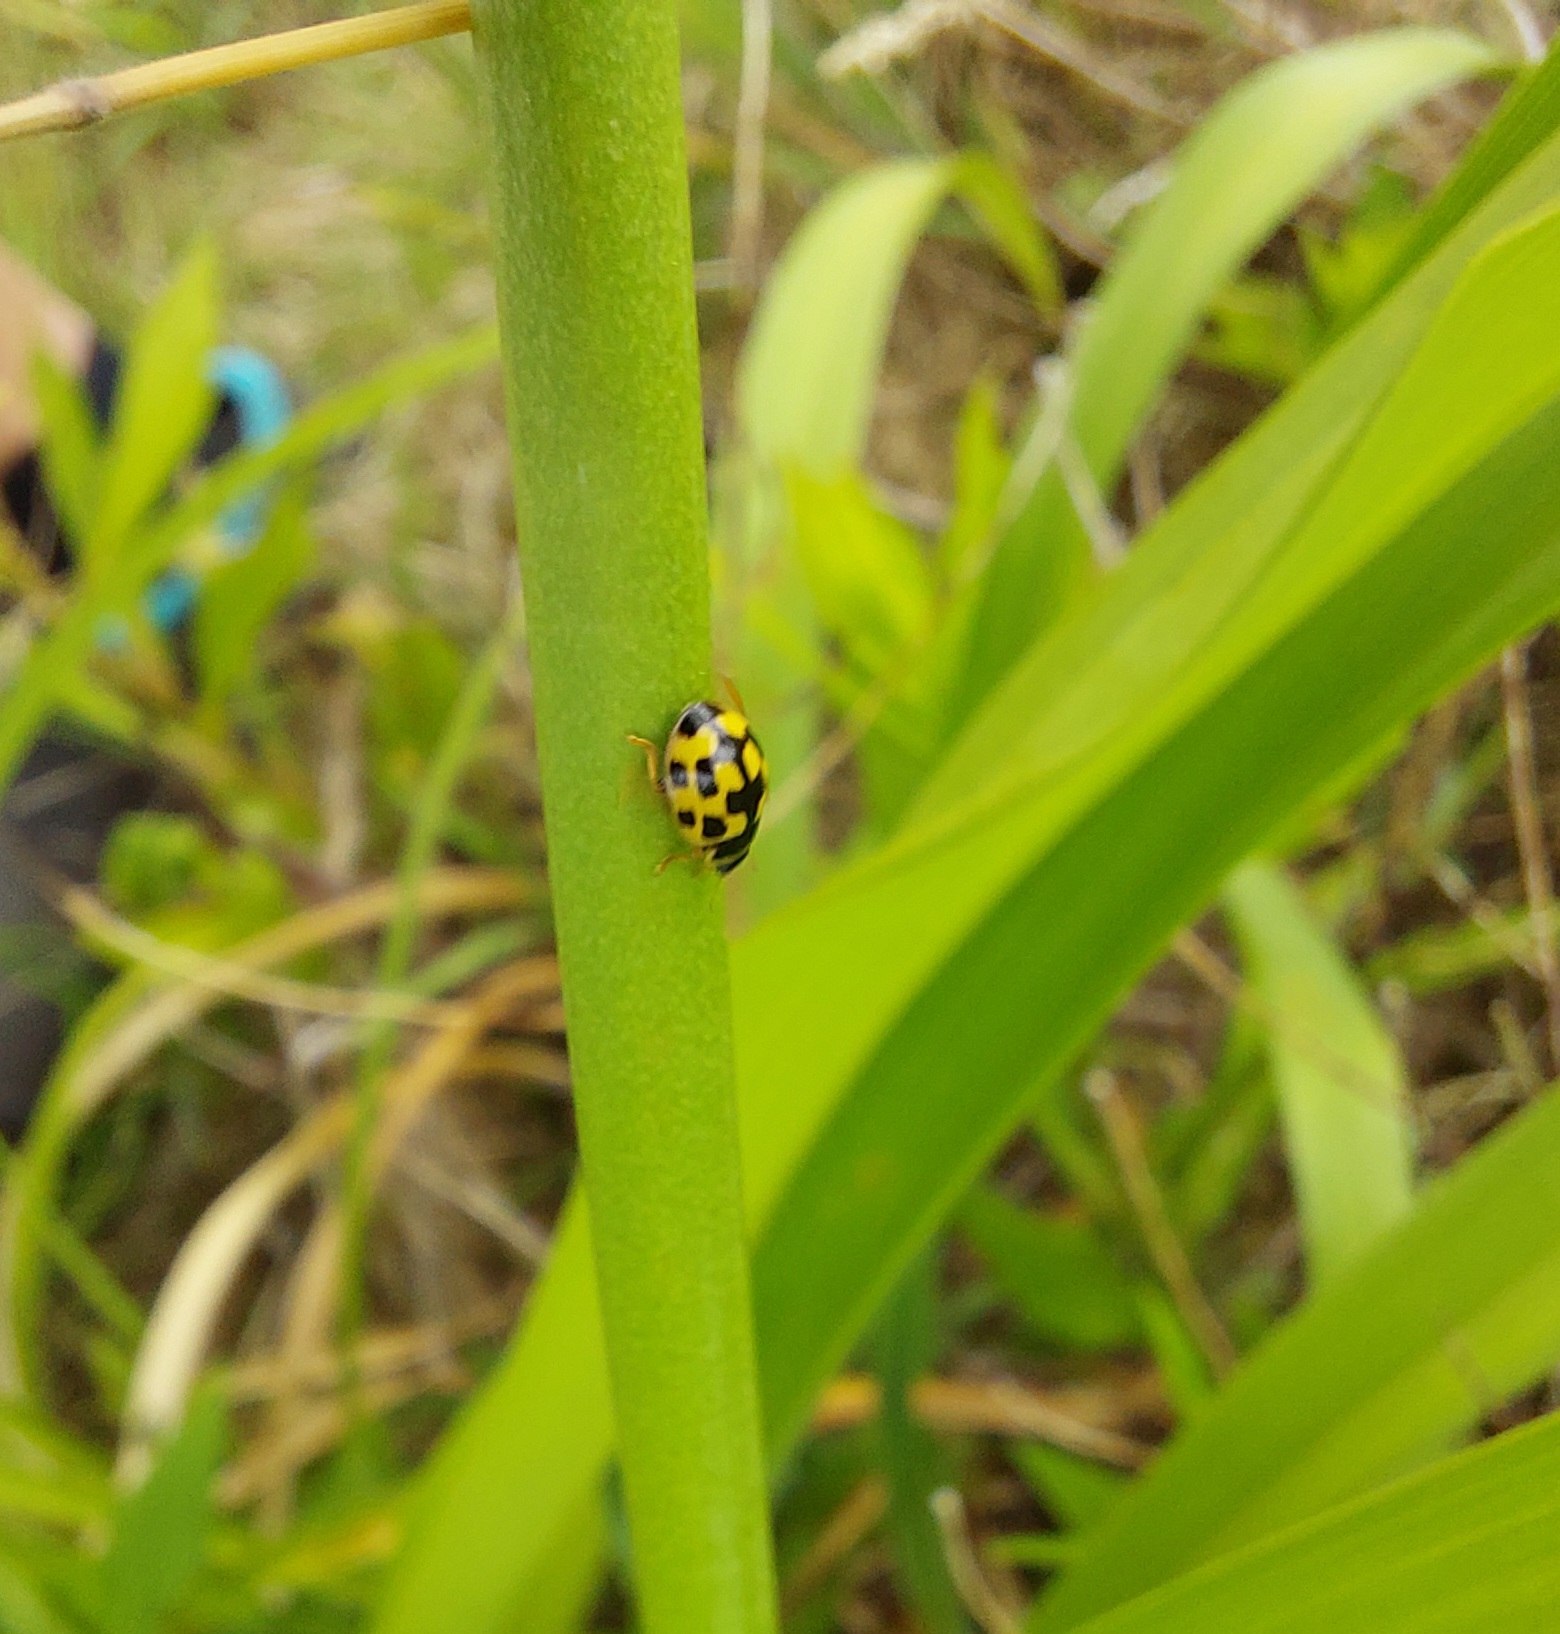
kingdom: Animalia
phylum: Arthropoda
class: Insecta
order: Coleoptera
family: Coccinellidae
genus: Propylaea
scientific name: Propylaea quatuordecimpunctata
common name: Skakbræt
